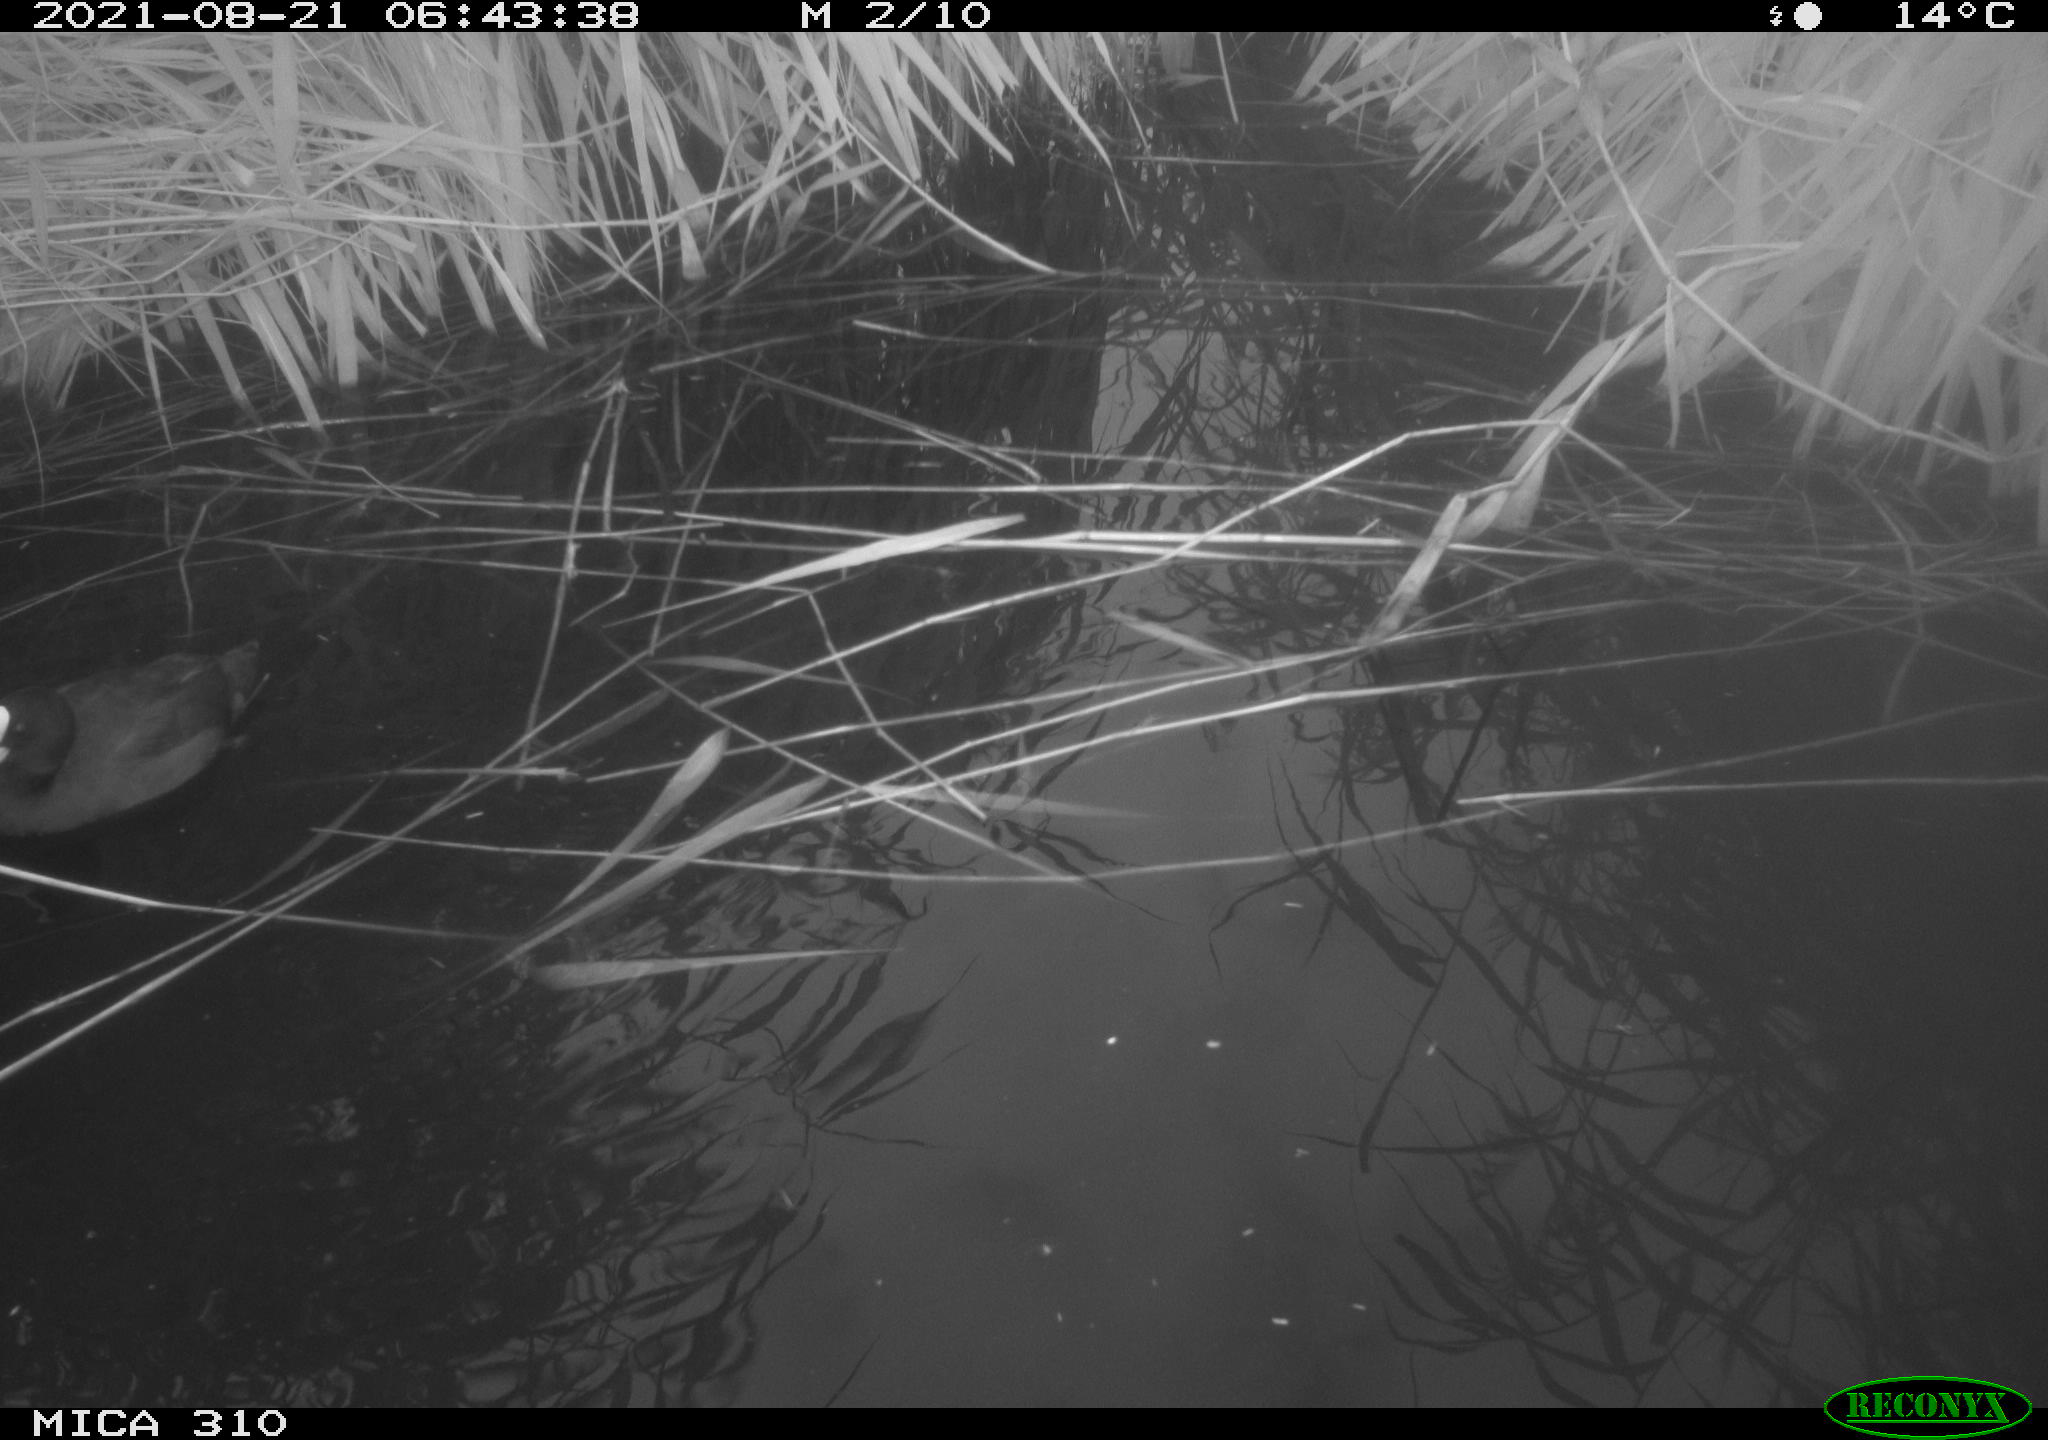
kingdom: Animalia
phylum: Chordata
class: Aves
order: Gruiformes
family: Rallidae
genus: Gallinula
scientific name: Gallinula chloropus
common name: Common moorhen
